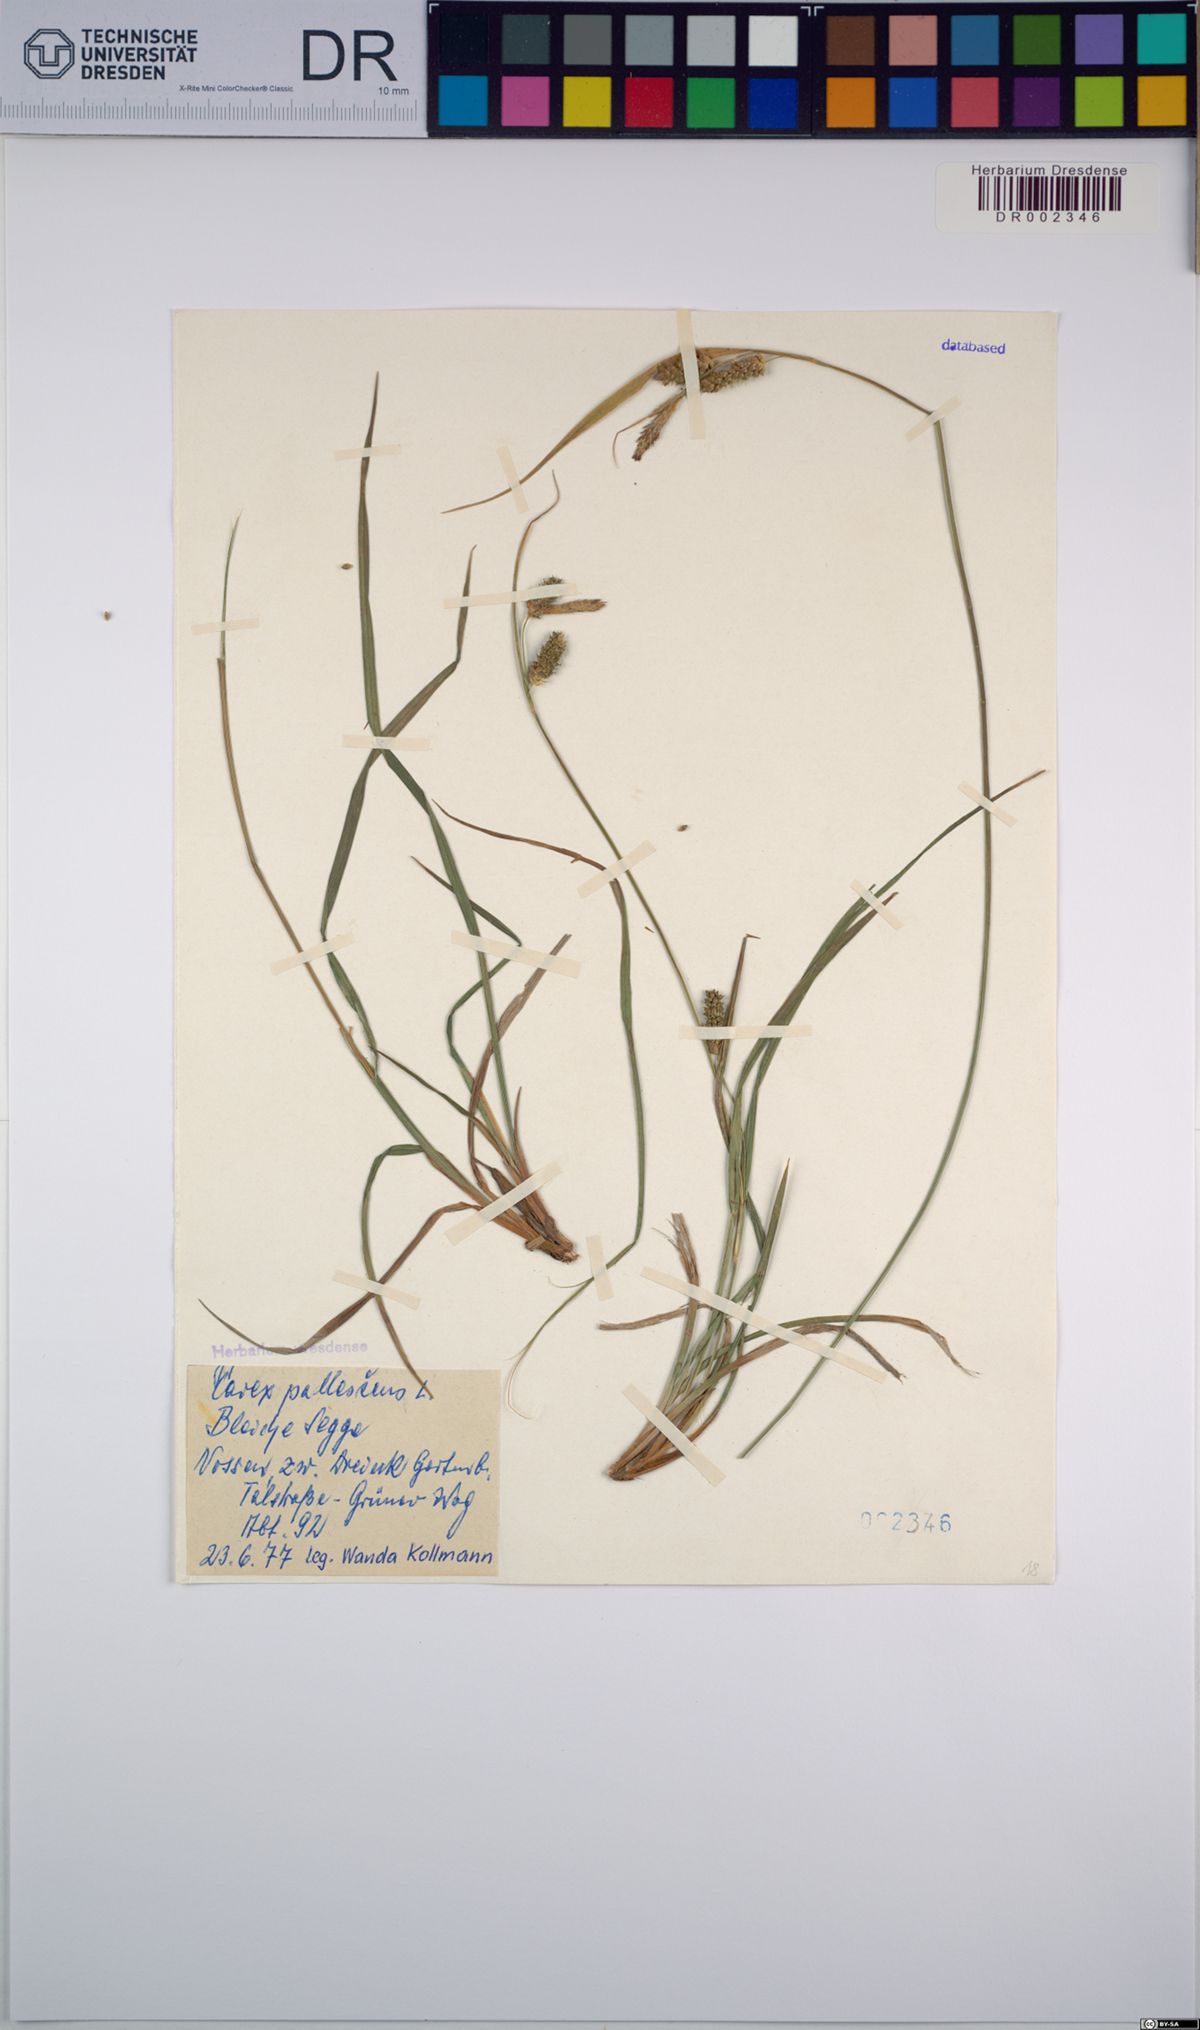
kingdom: Plantae
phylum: Tracheophyta
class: Liliopsida
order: Poales
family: Cyperaceae
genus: Carex
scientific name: Carex pallescens
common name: Pale sedge
